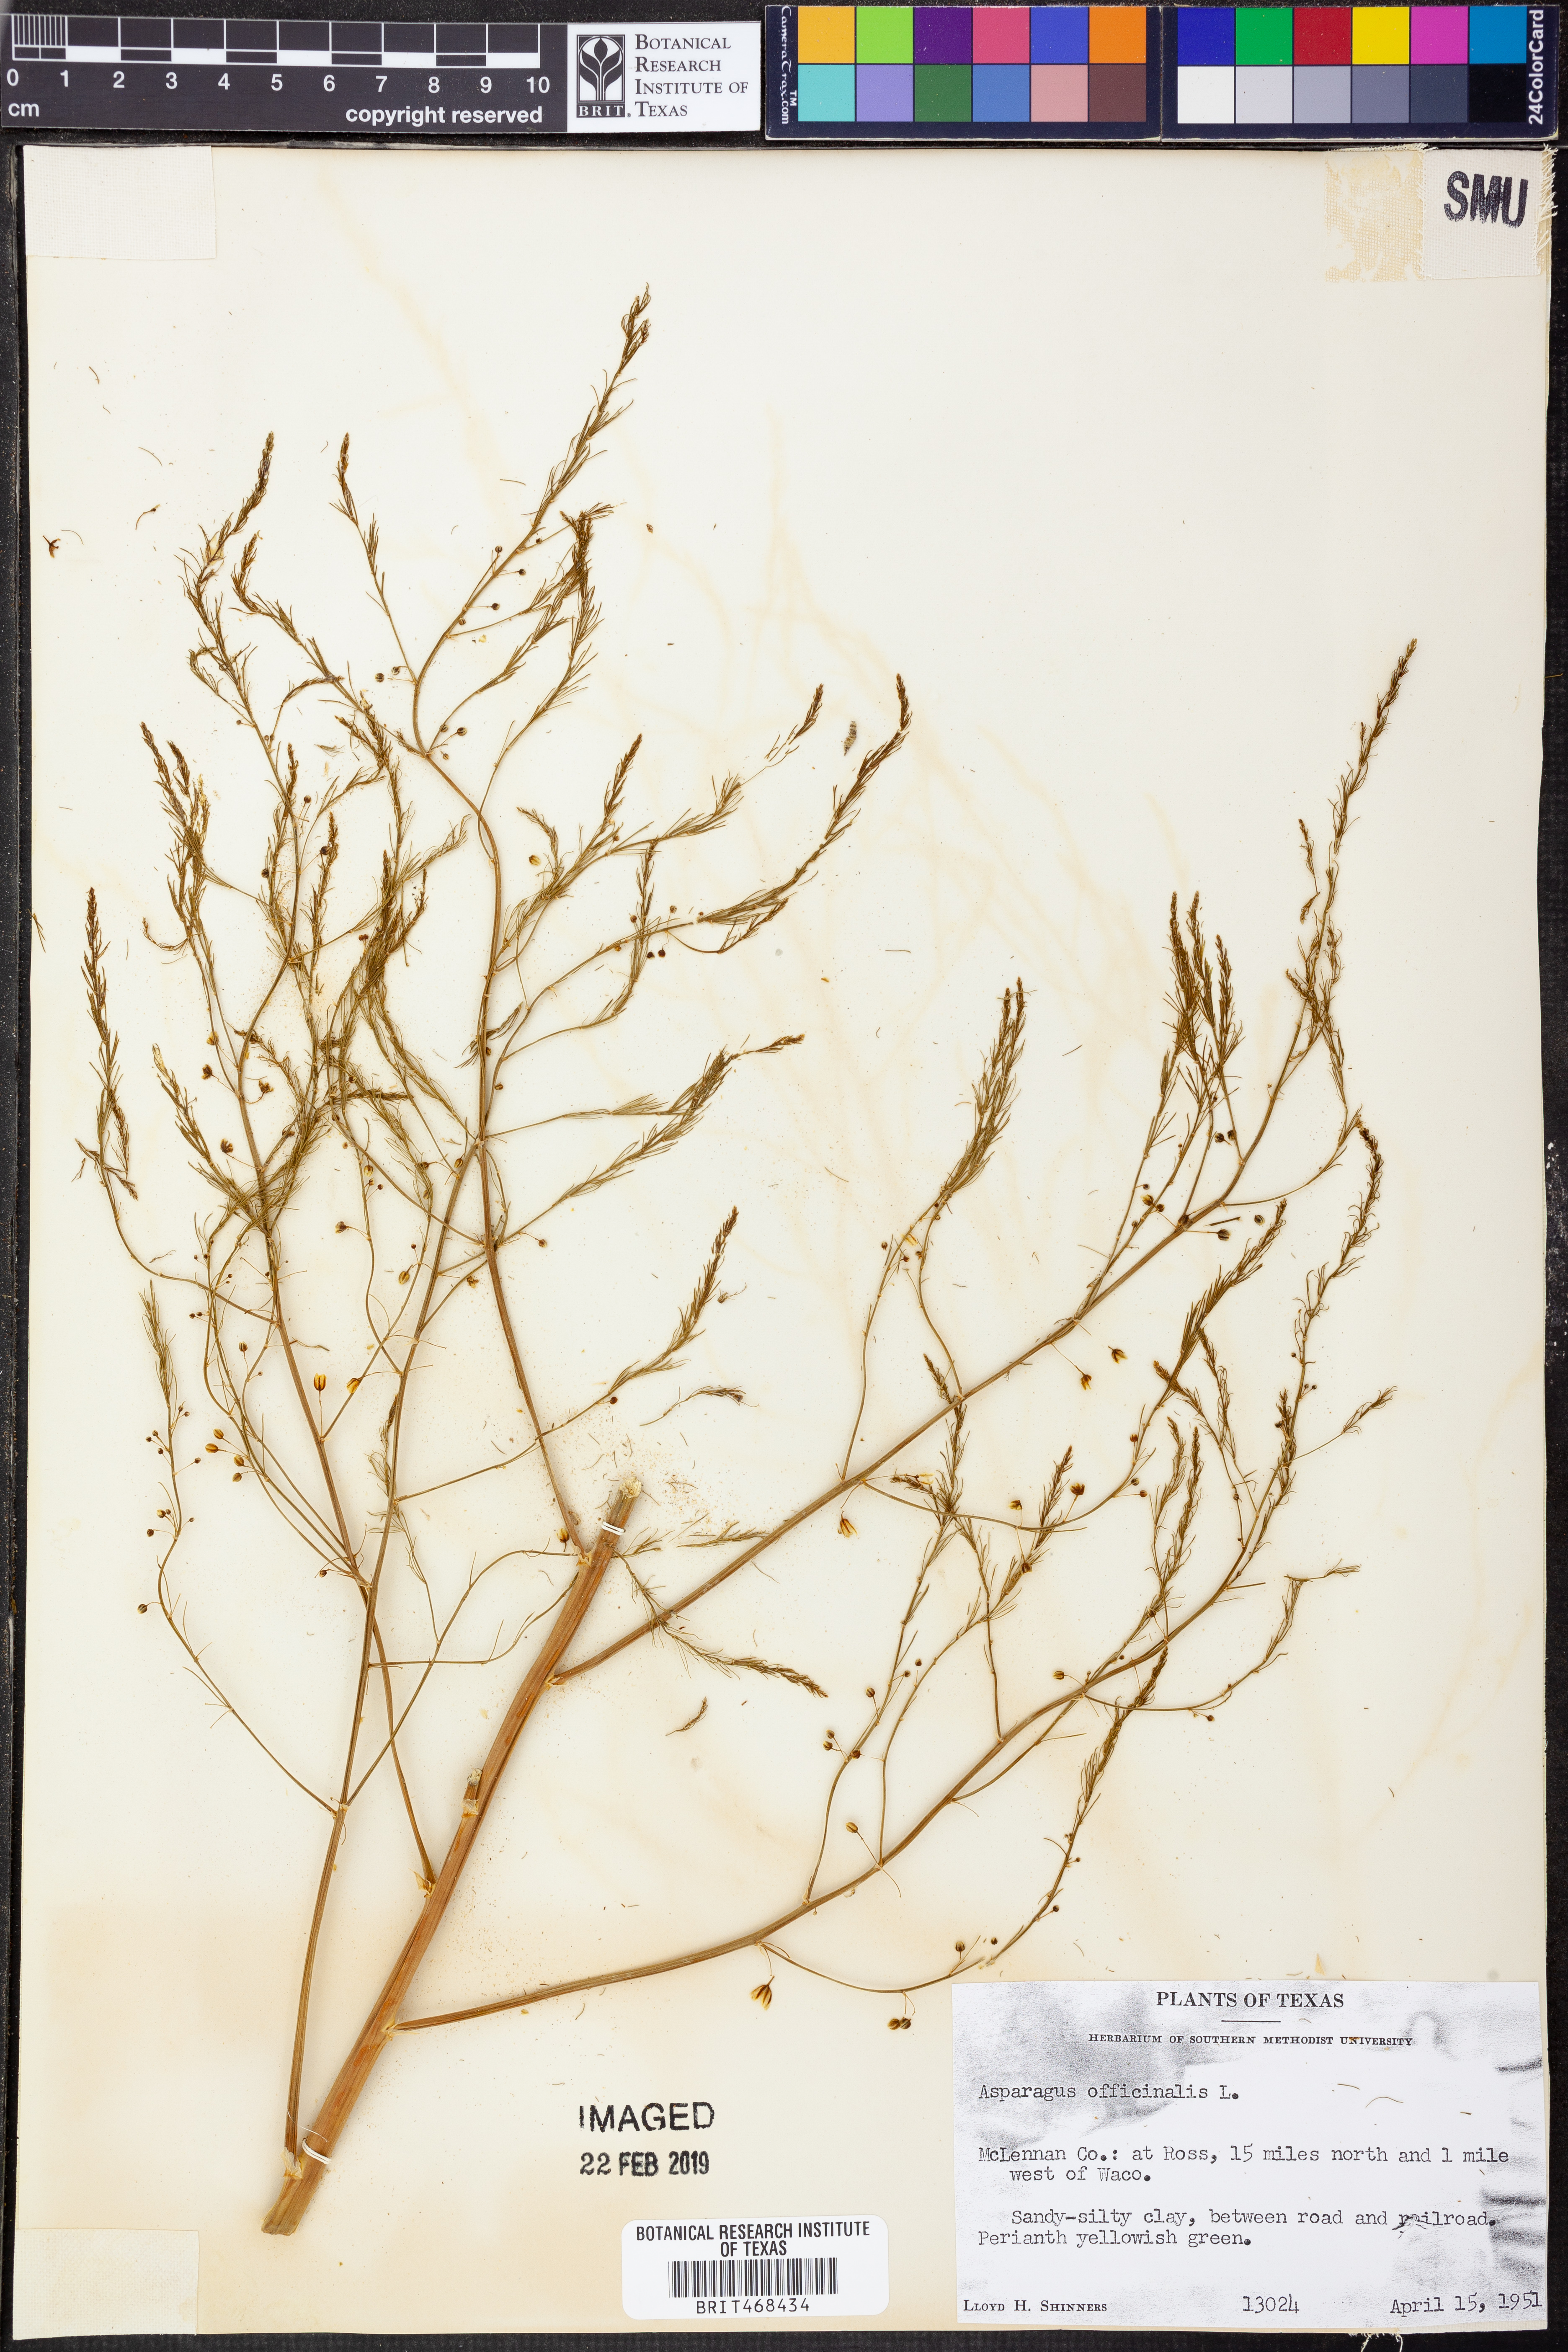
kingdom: Plantae
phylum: Tracheophyta
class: Liliopsida
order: Asparagales
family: Asparagaceae
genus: Asparagus
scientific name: Asparagus officinalis
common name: Garden asparagus
